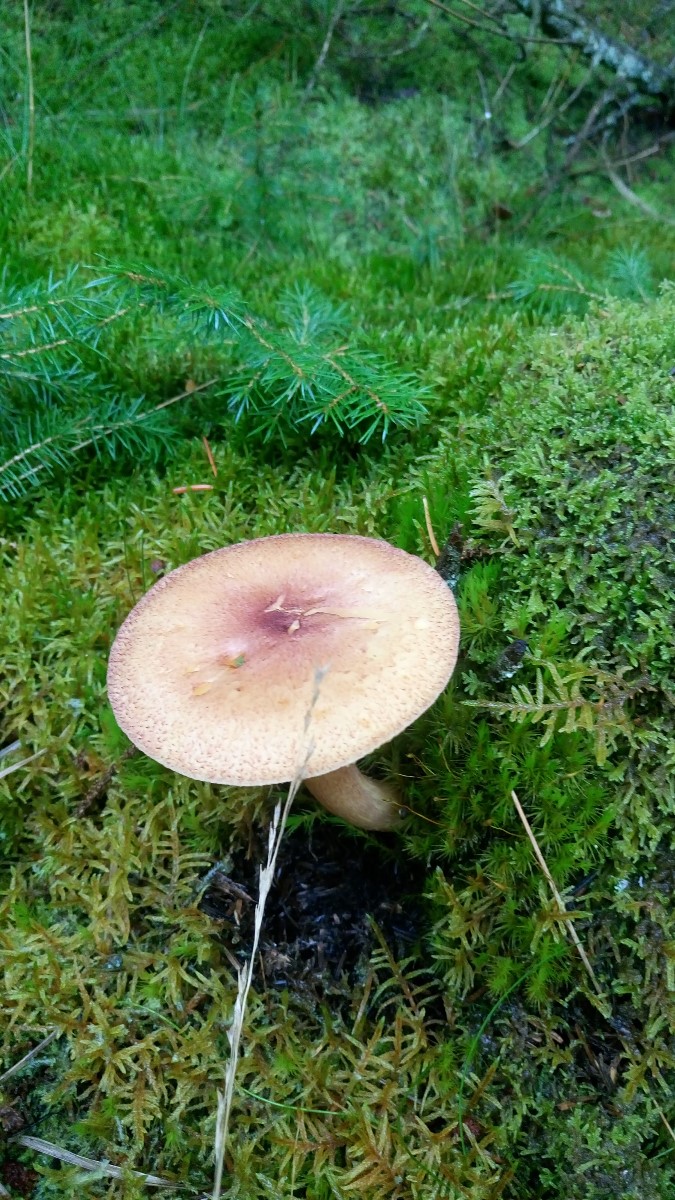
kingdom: Fungi
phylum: Basidiomycota
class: Agaricomycetes
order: Agaricales
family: Tricholomataceae
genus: Tricholomopsis
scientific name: Tricholomopsis rutilans
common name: purpur-væbnerhat
